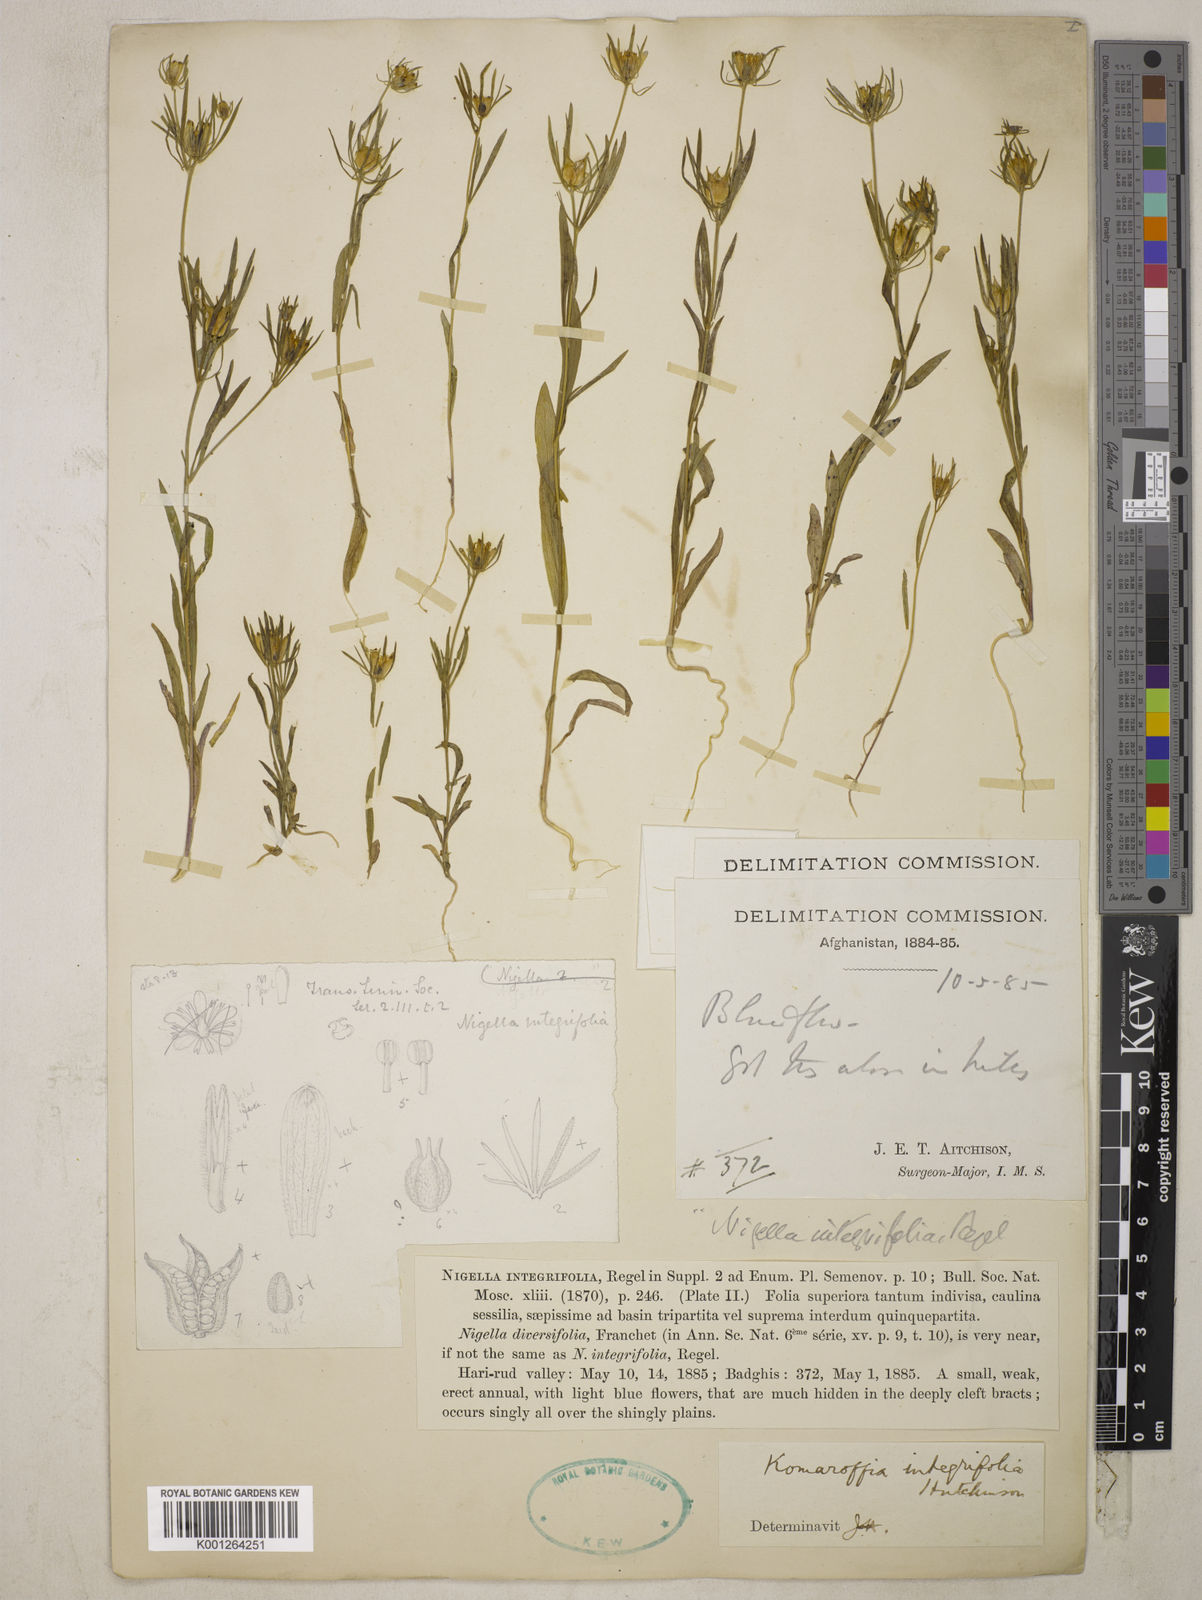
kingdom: Plantae
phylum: Tracheophyta
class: Magnoliopsida
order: Ranunculales
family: Ranunculaceae
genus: Komaroffia
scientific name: Komaroffia integrifolia
